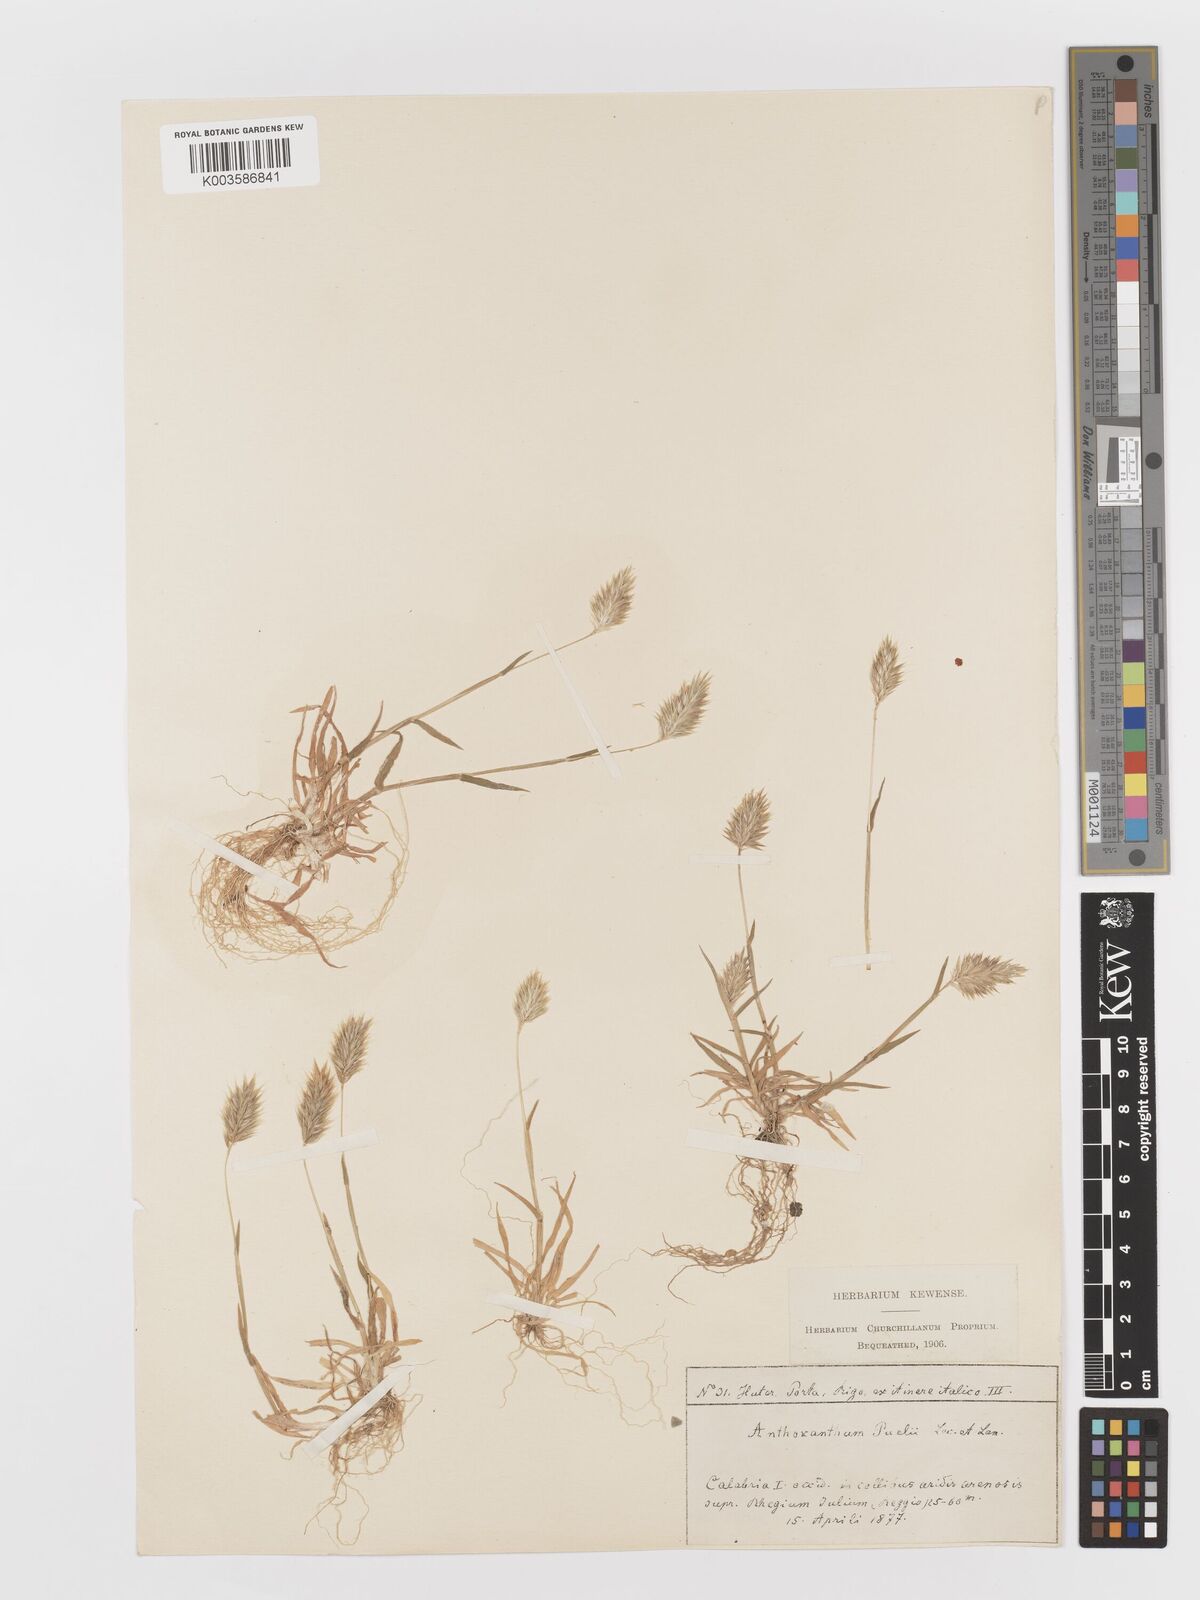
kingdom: Plantae
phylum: Tracheophyta
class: Liliopsida
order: Poales
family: Poaceae
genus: Anthoxanthum
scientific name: Anthoxanthum
